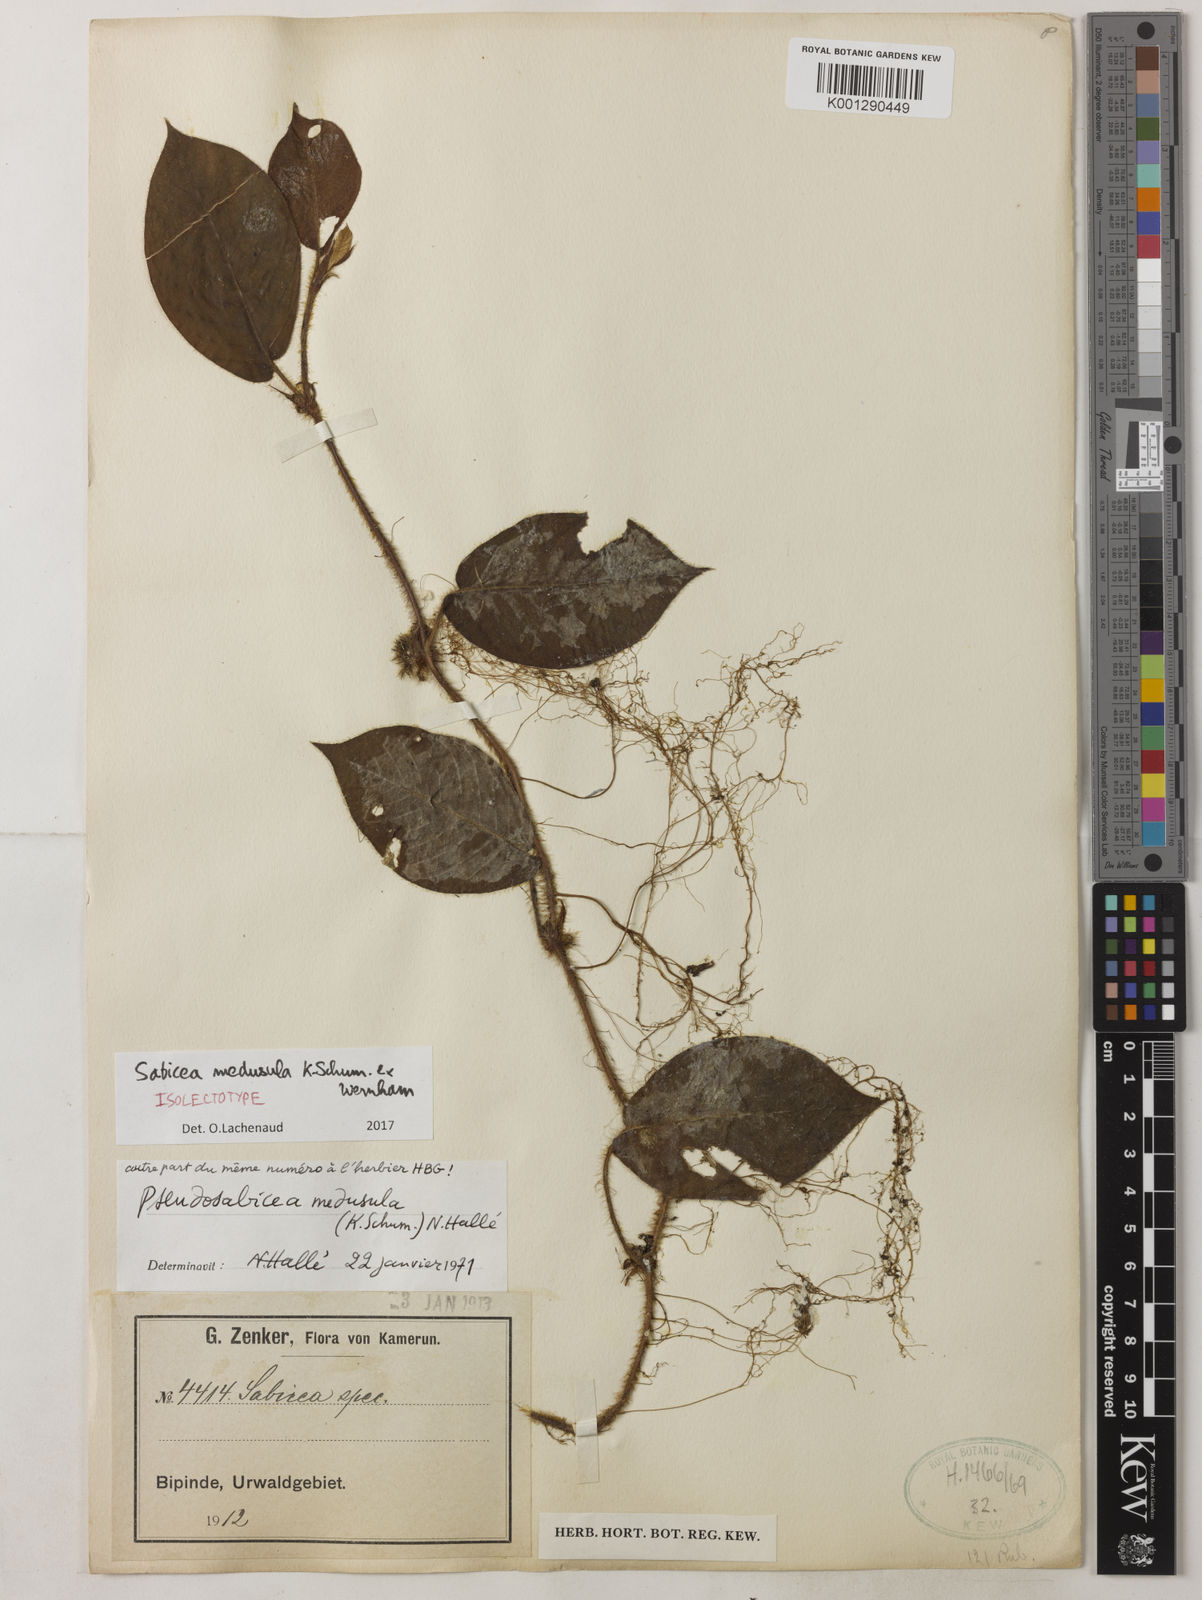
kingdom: Plantae
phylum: Tracheophyta
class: Magnoliopsida
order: Gentianales
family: Rubiaceae
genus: Sabicea
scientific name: Sabicea medusula
